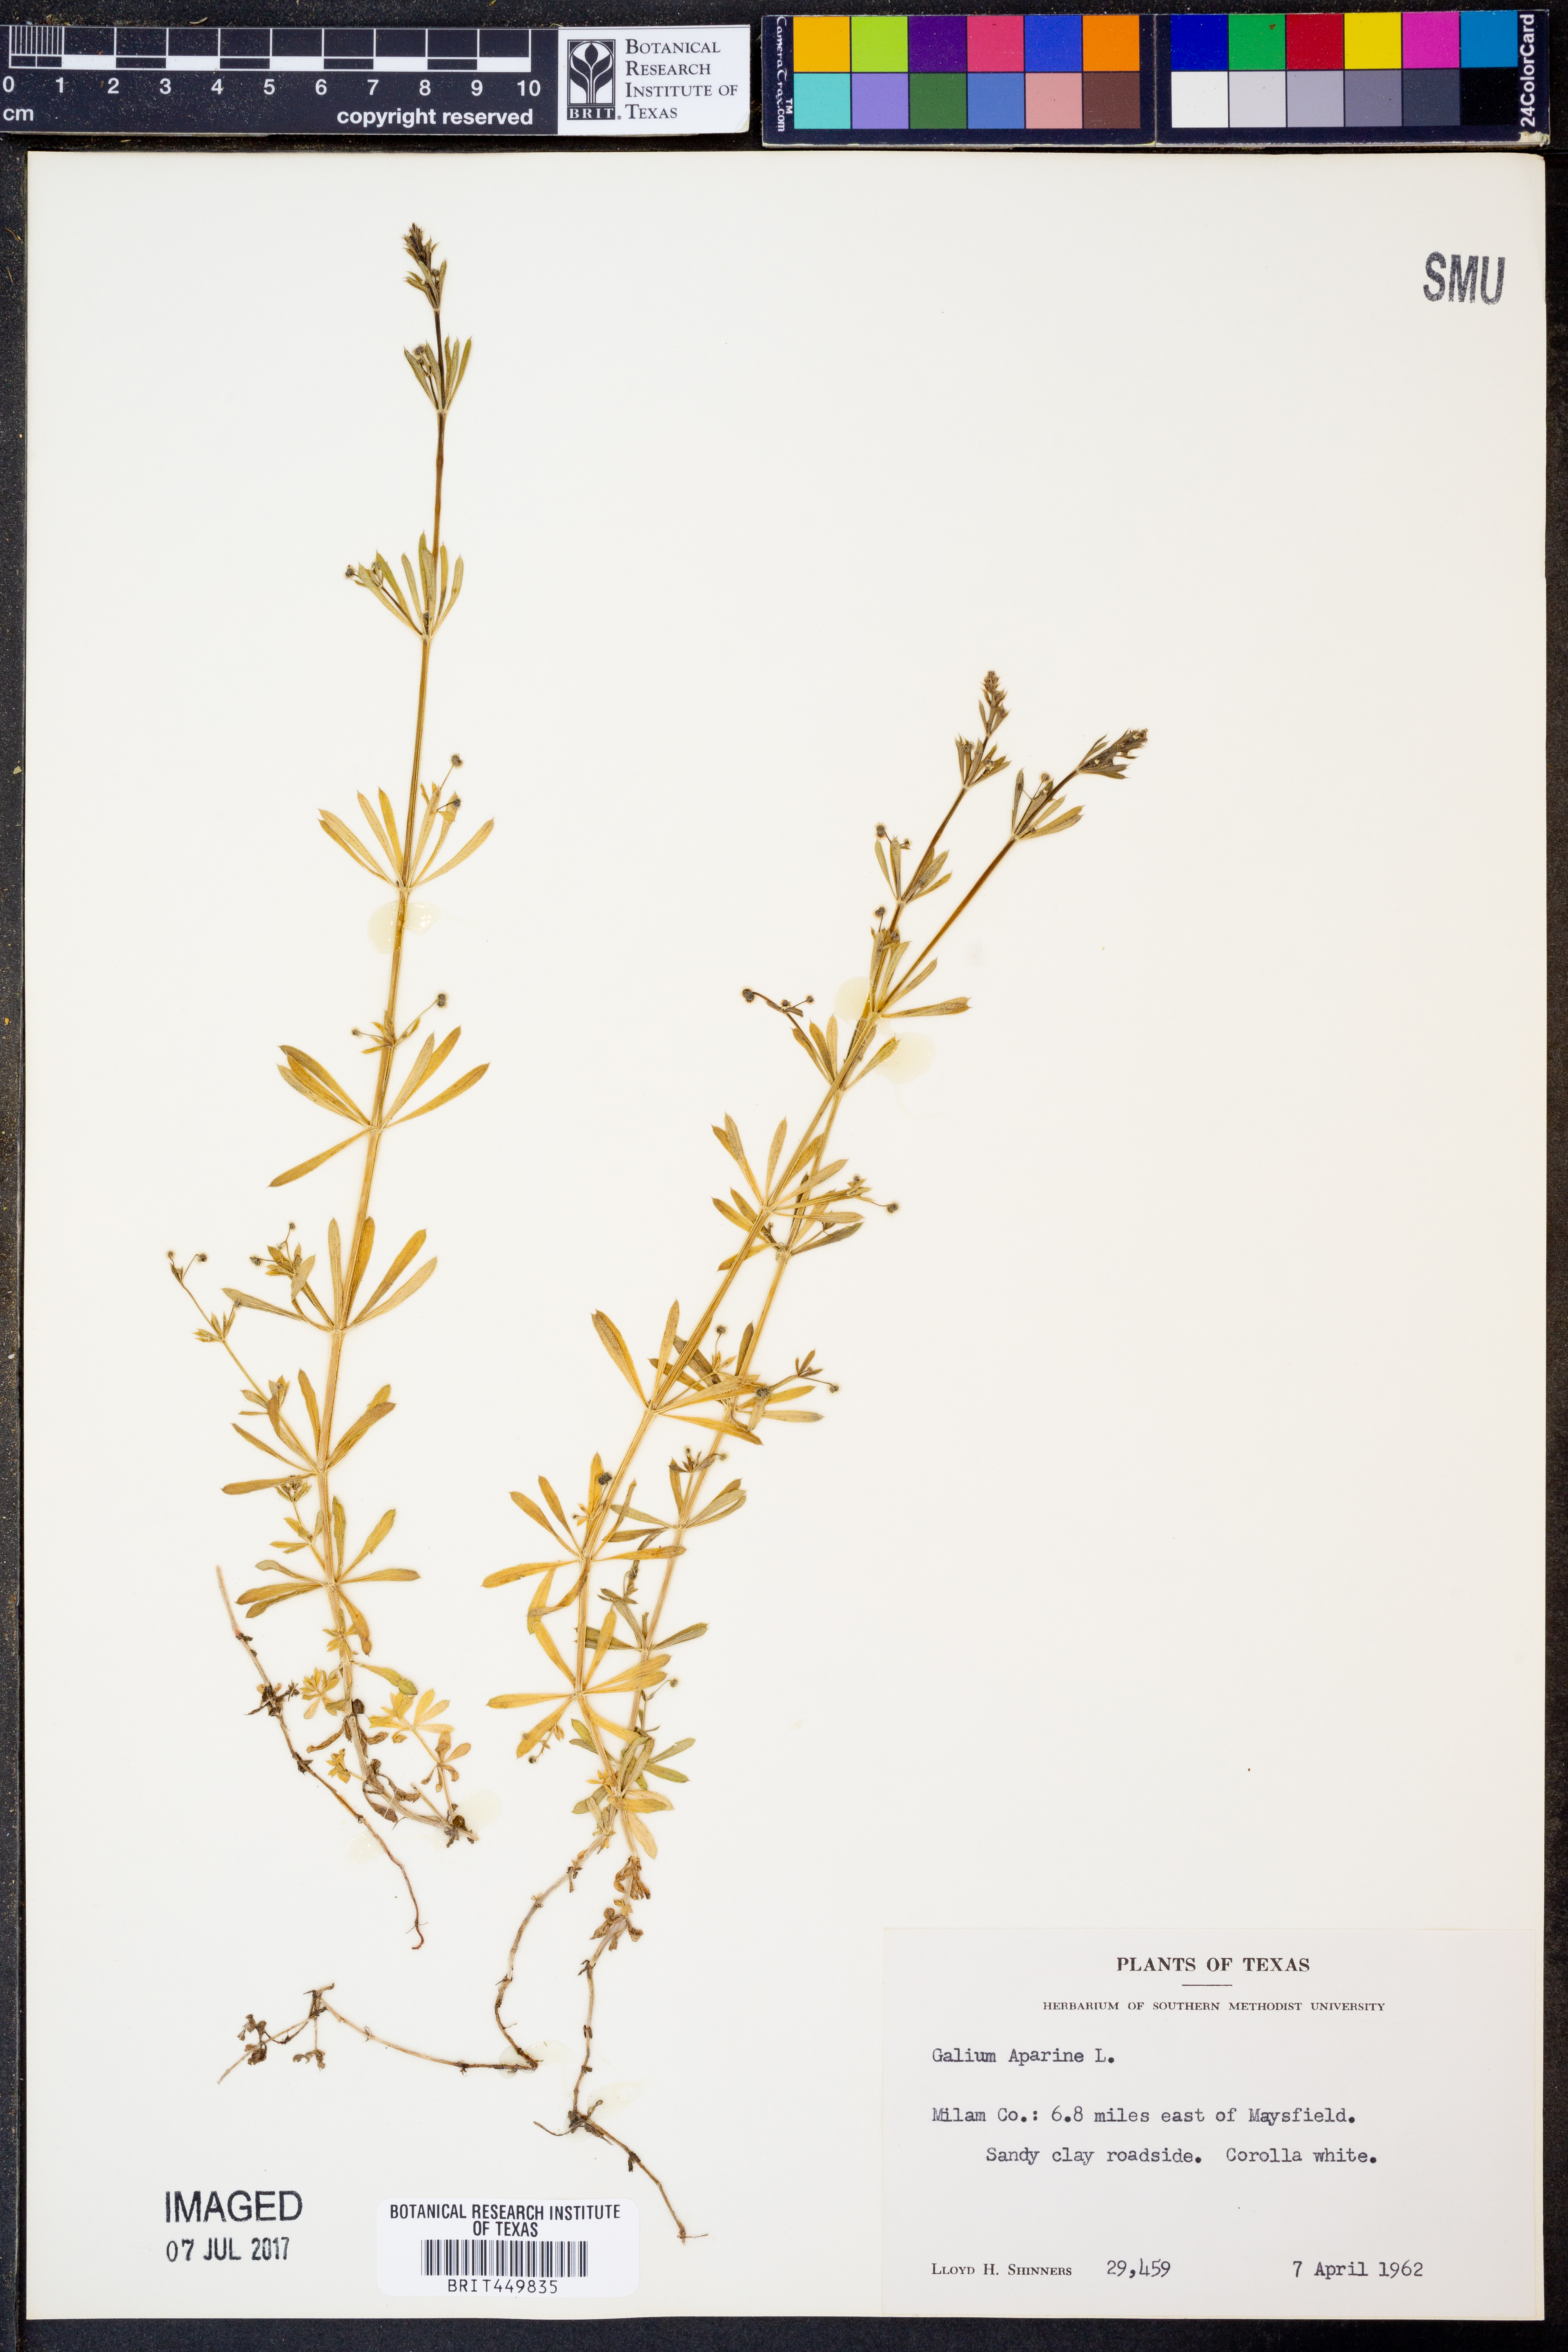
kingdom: Plantae
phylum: Tracheophyta
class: Magnoliopsida
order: Gentianales
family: Rubiaceae
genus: Galium
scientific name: Galium aparine
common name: Cleavers
